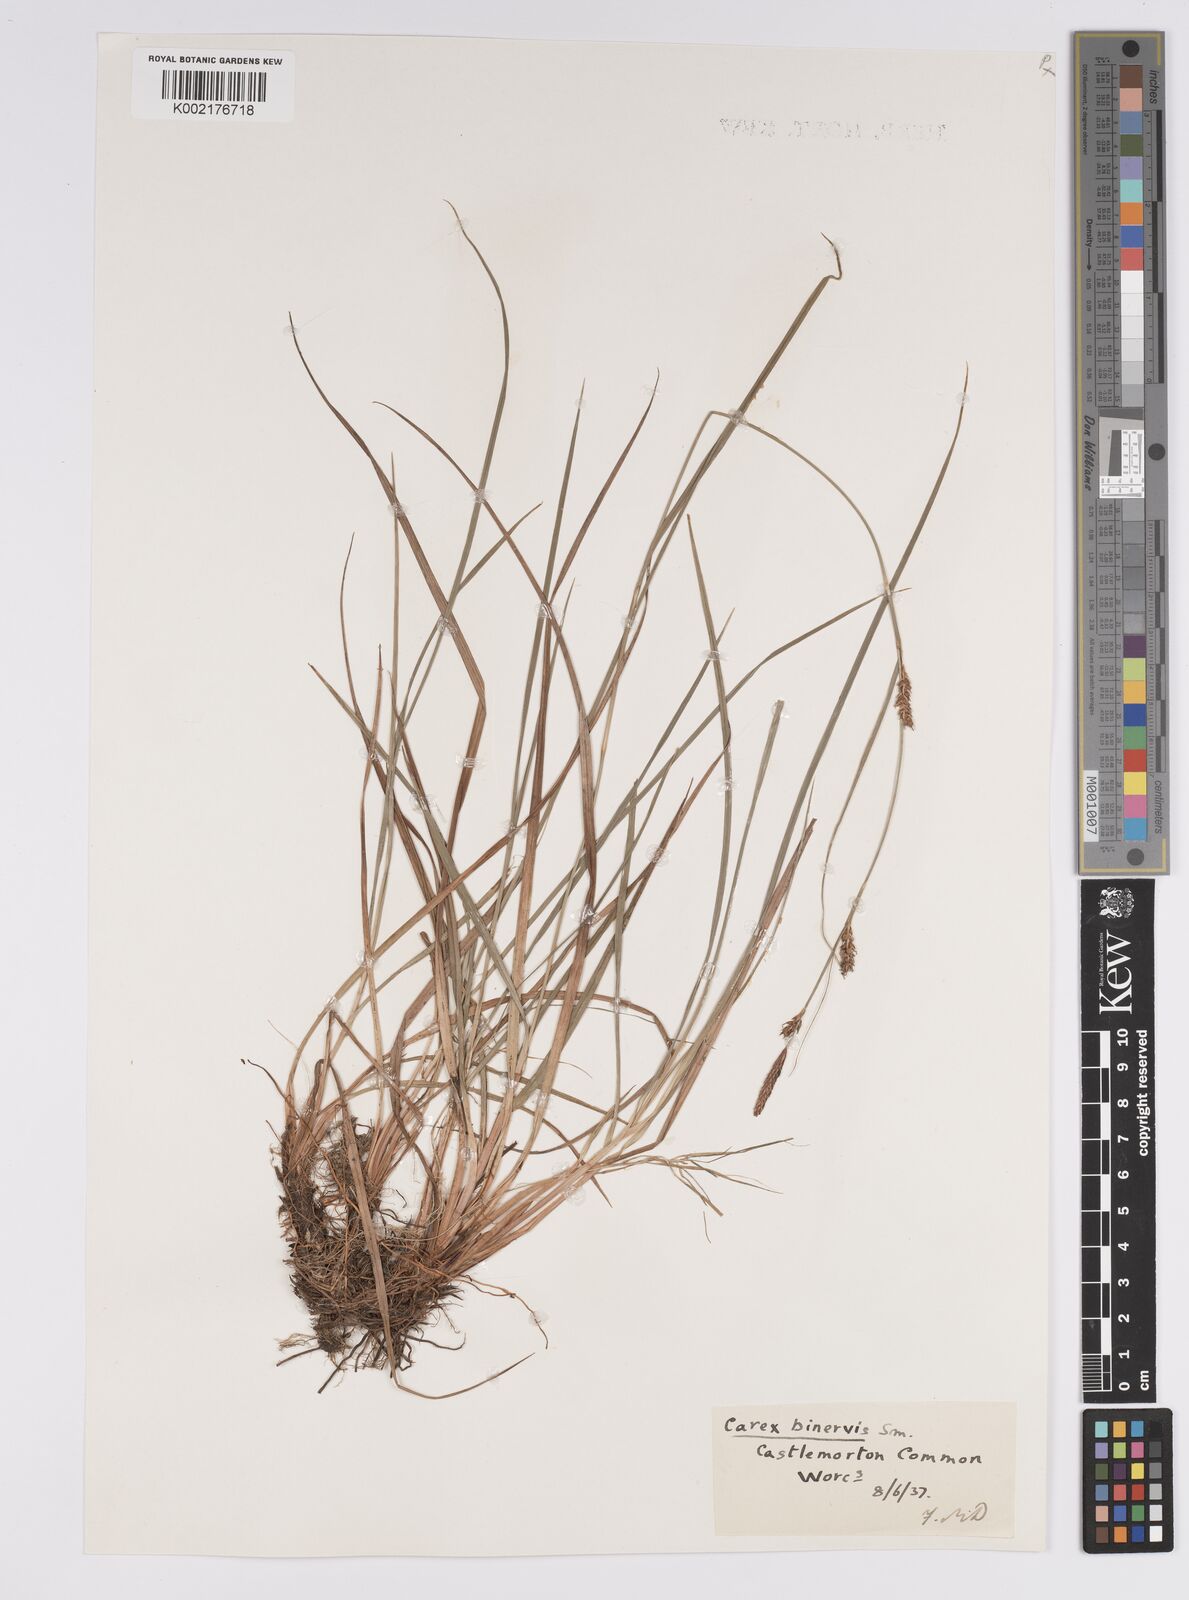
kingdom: Plantae
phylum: Tracheophyta
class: Liliopsida
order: Poales
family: Cyperaceae
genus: Carex
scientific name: Carex binervis
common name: Green-ribbed sedge
